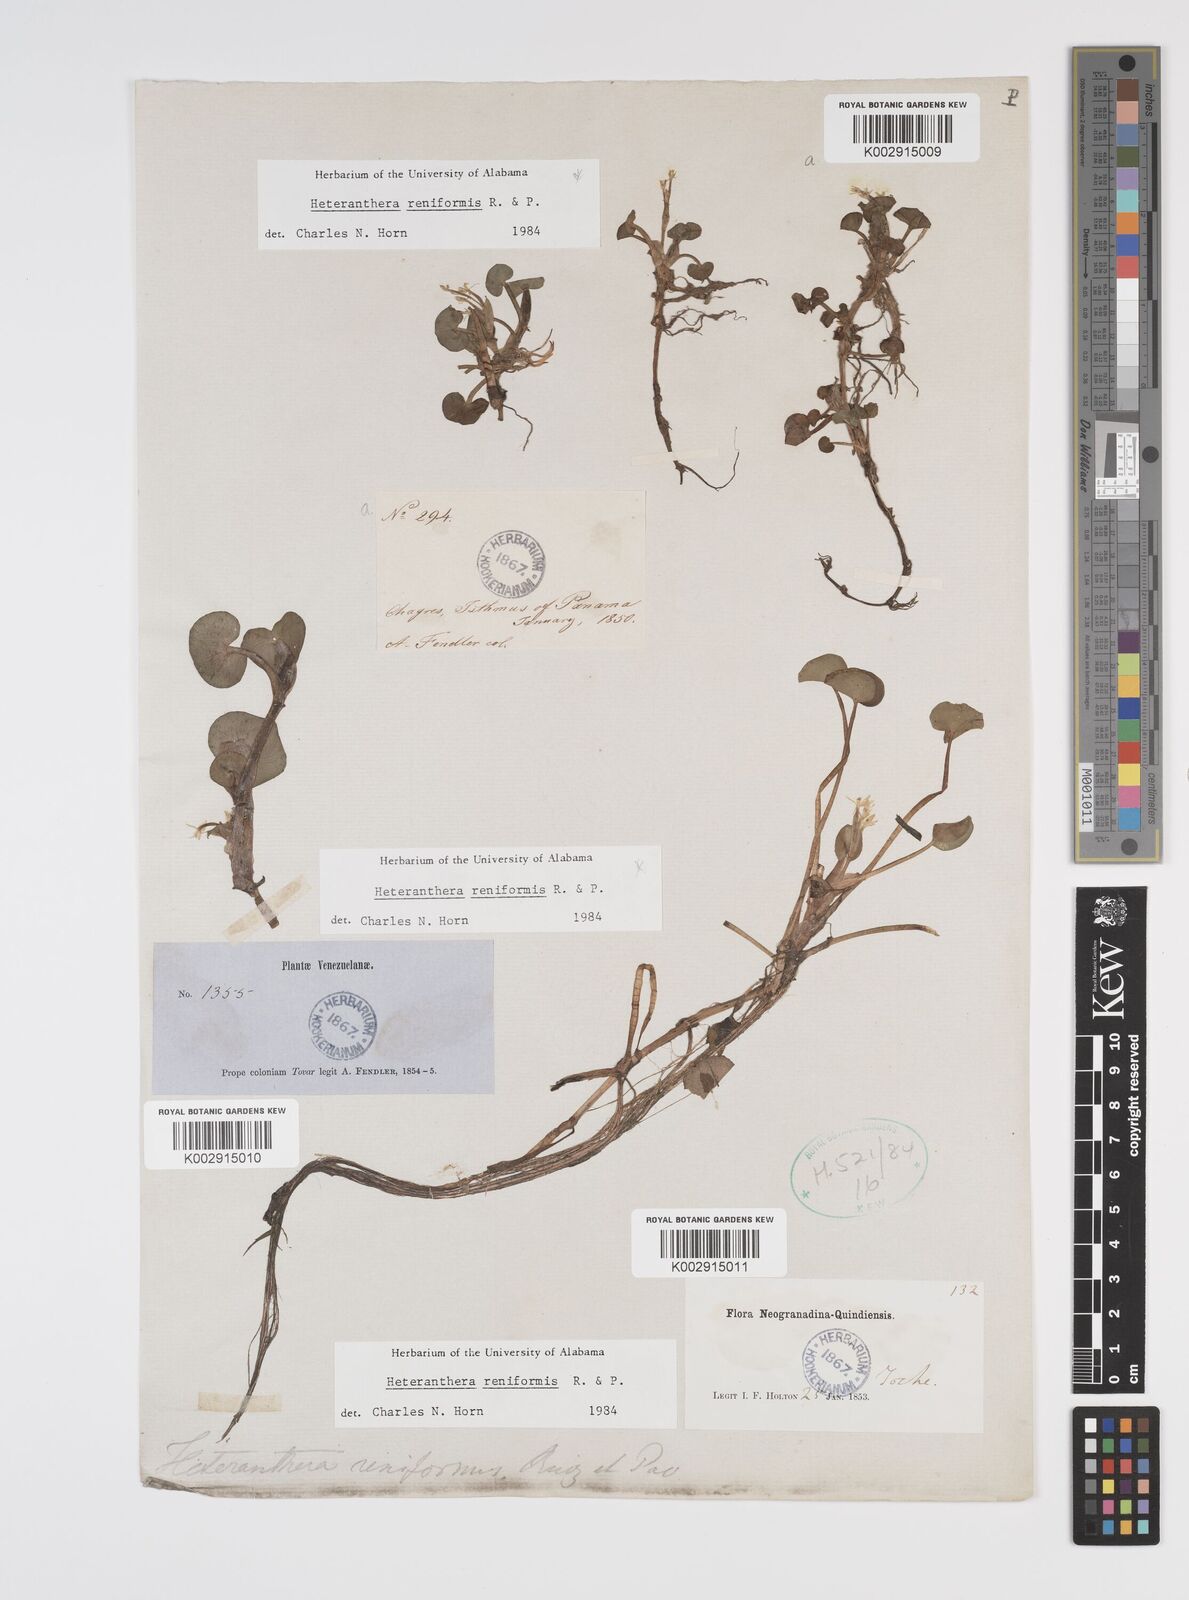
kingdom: Plantae
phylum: Tracheophyta
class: Liliopsida
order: Commelinales
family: Pontederiaceae
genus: Heteranthera
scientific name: Heteranthera reniformis
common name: Kidneyleaf mudplantain
